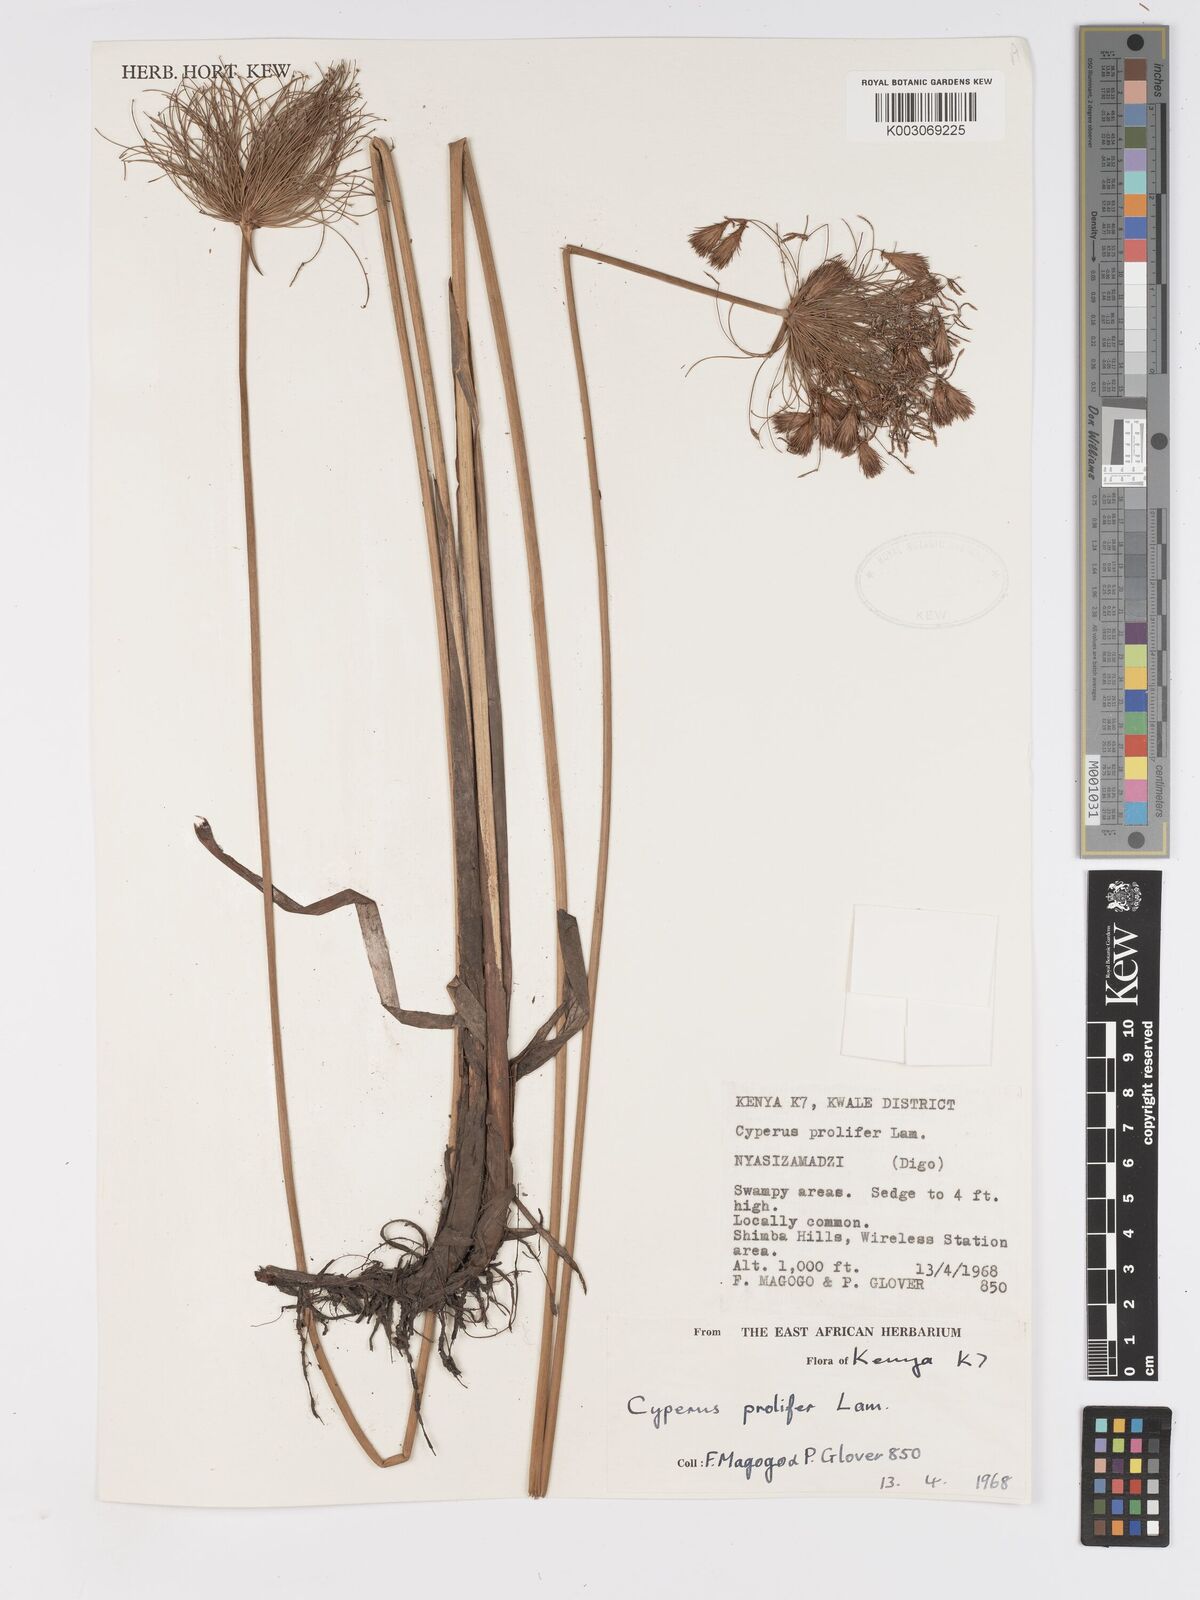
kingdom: Plantae
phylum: Tracheophyta
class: Liliopsida
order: Poales
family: Cyperaceae
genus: Cyperus
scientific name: Cyperus prolifer
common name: Miniature flatsedge
